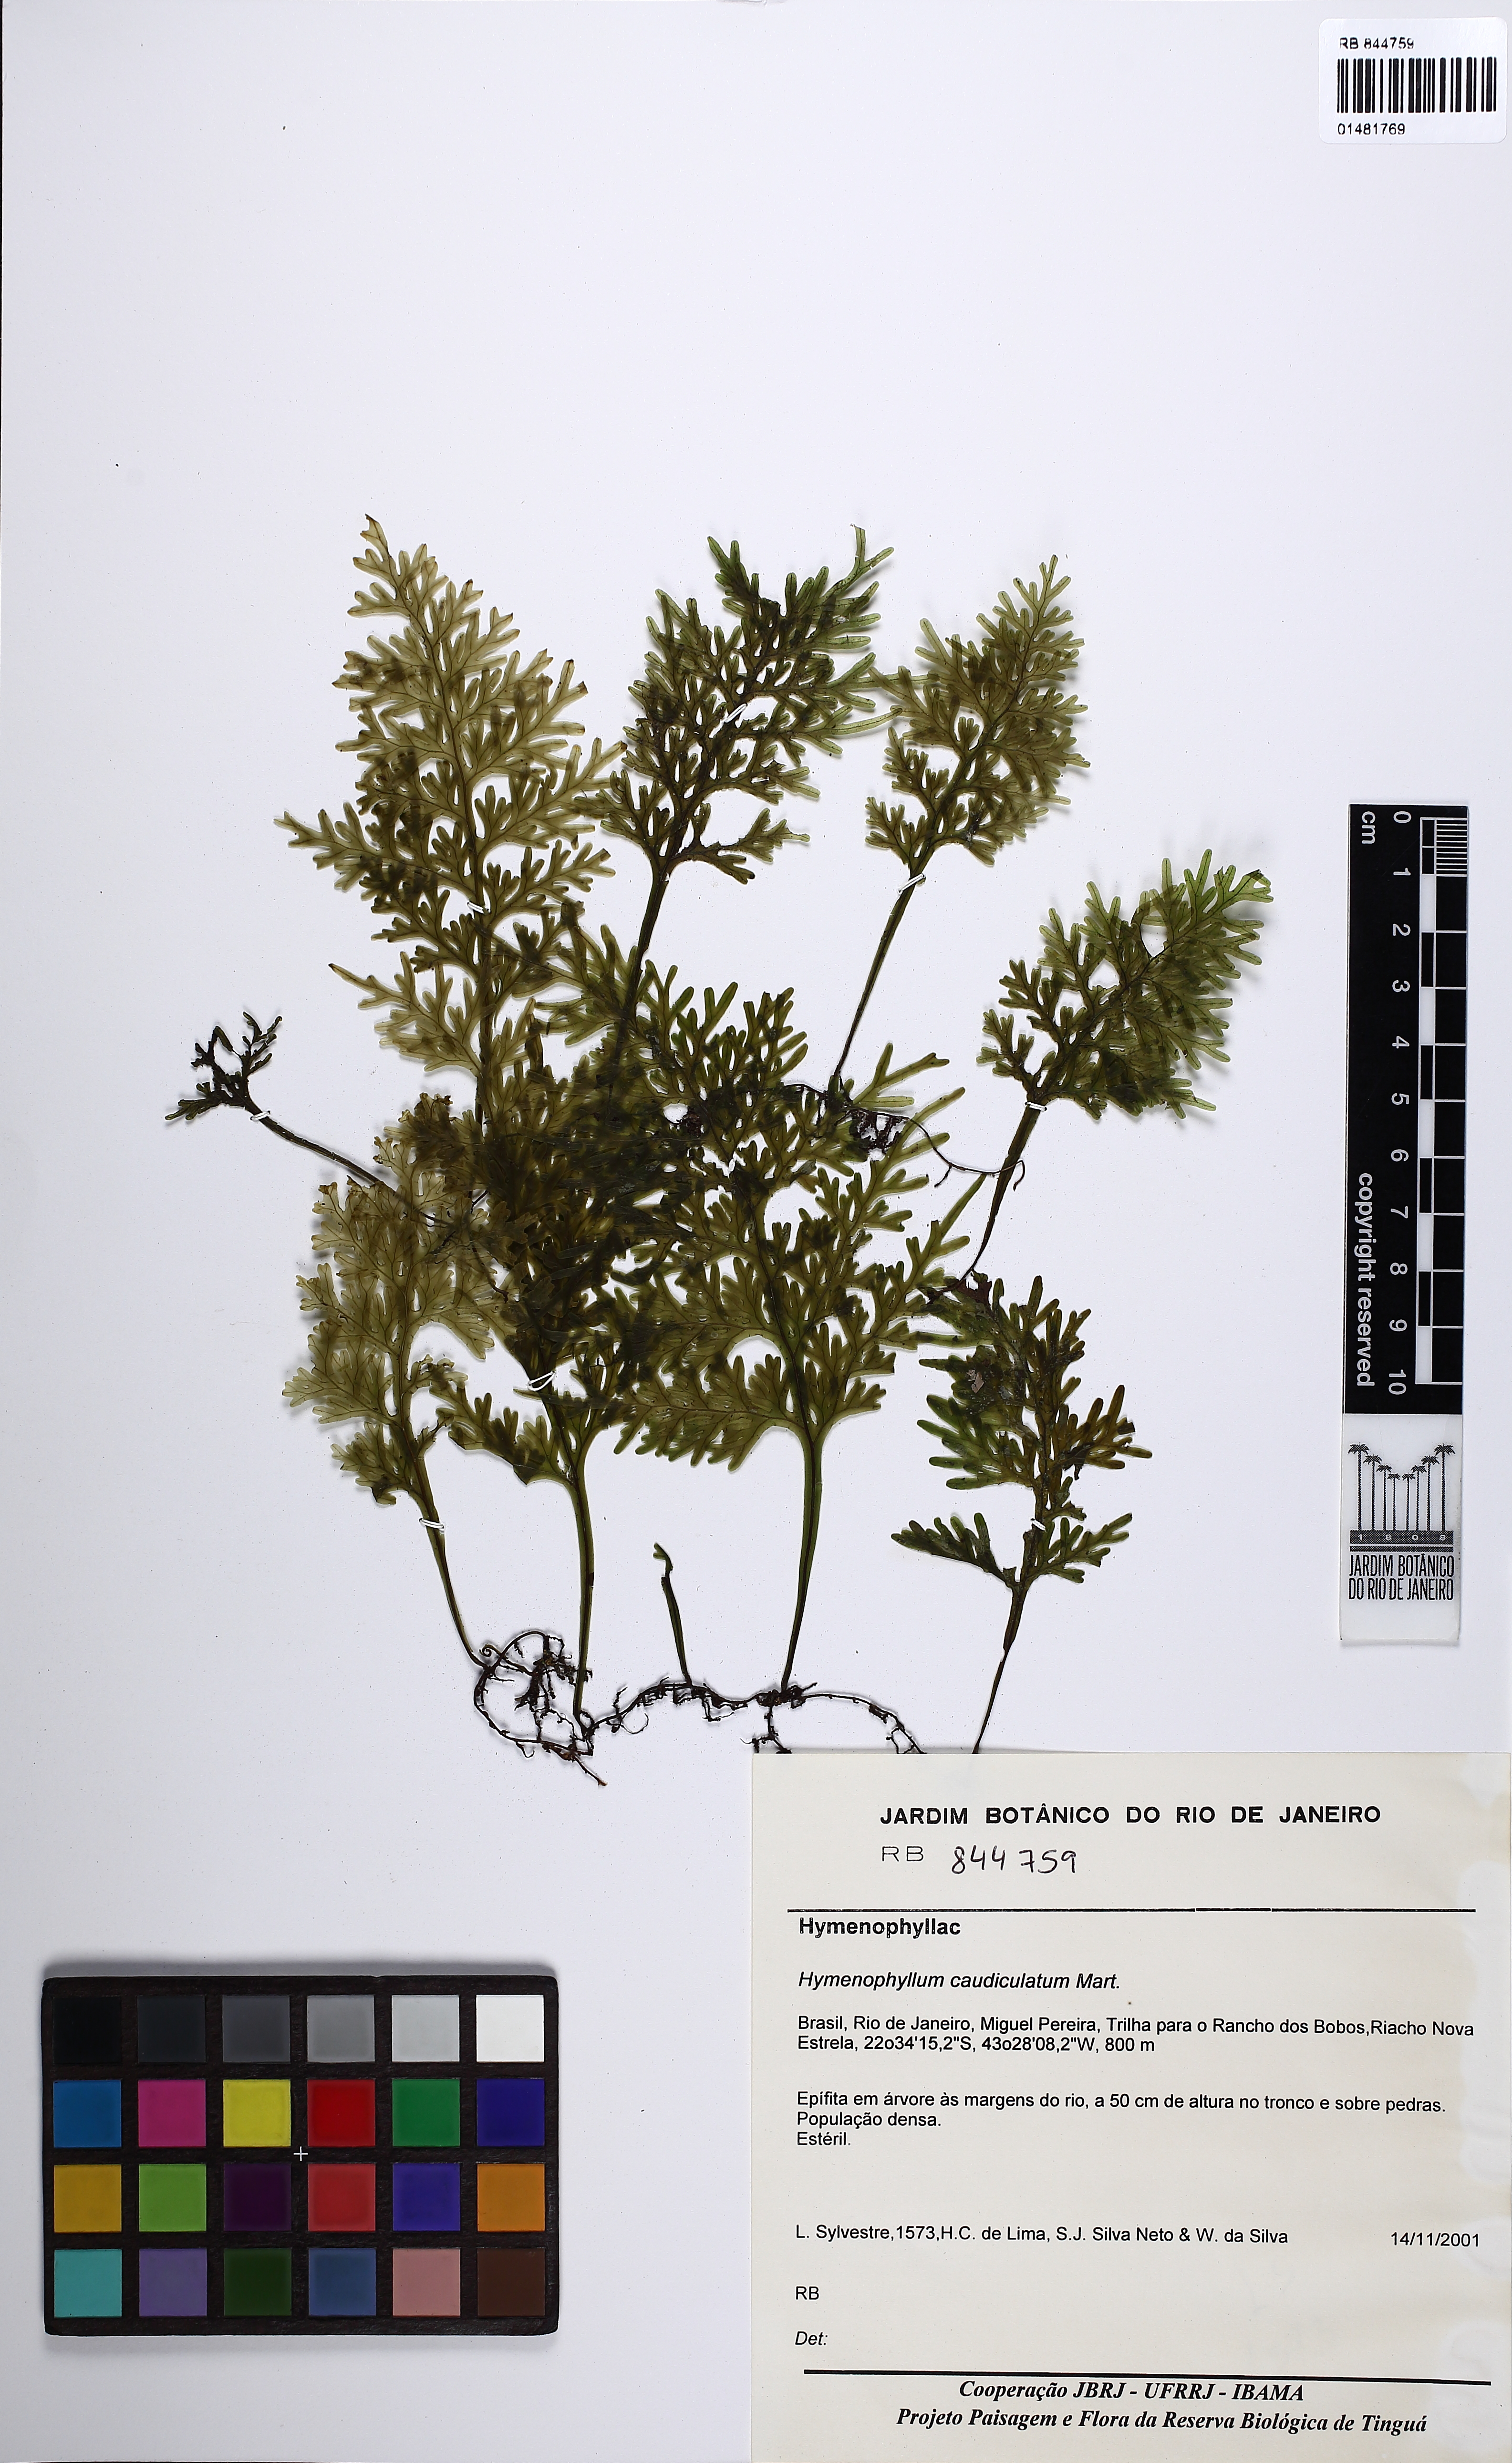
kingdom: Plantae
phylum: Tracheophyta
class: Polypodiopsida
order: Hymenophyllales
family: Hymenophyllaceae
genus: Hymenophyllum
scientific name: Hymenophyllum caudiculatum
